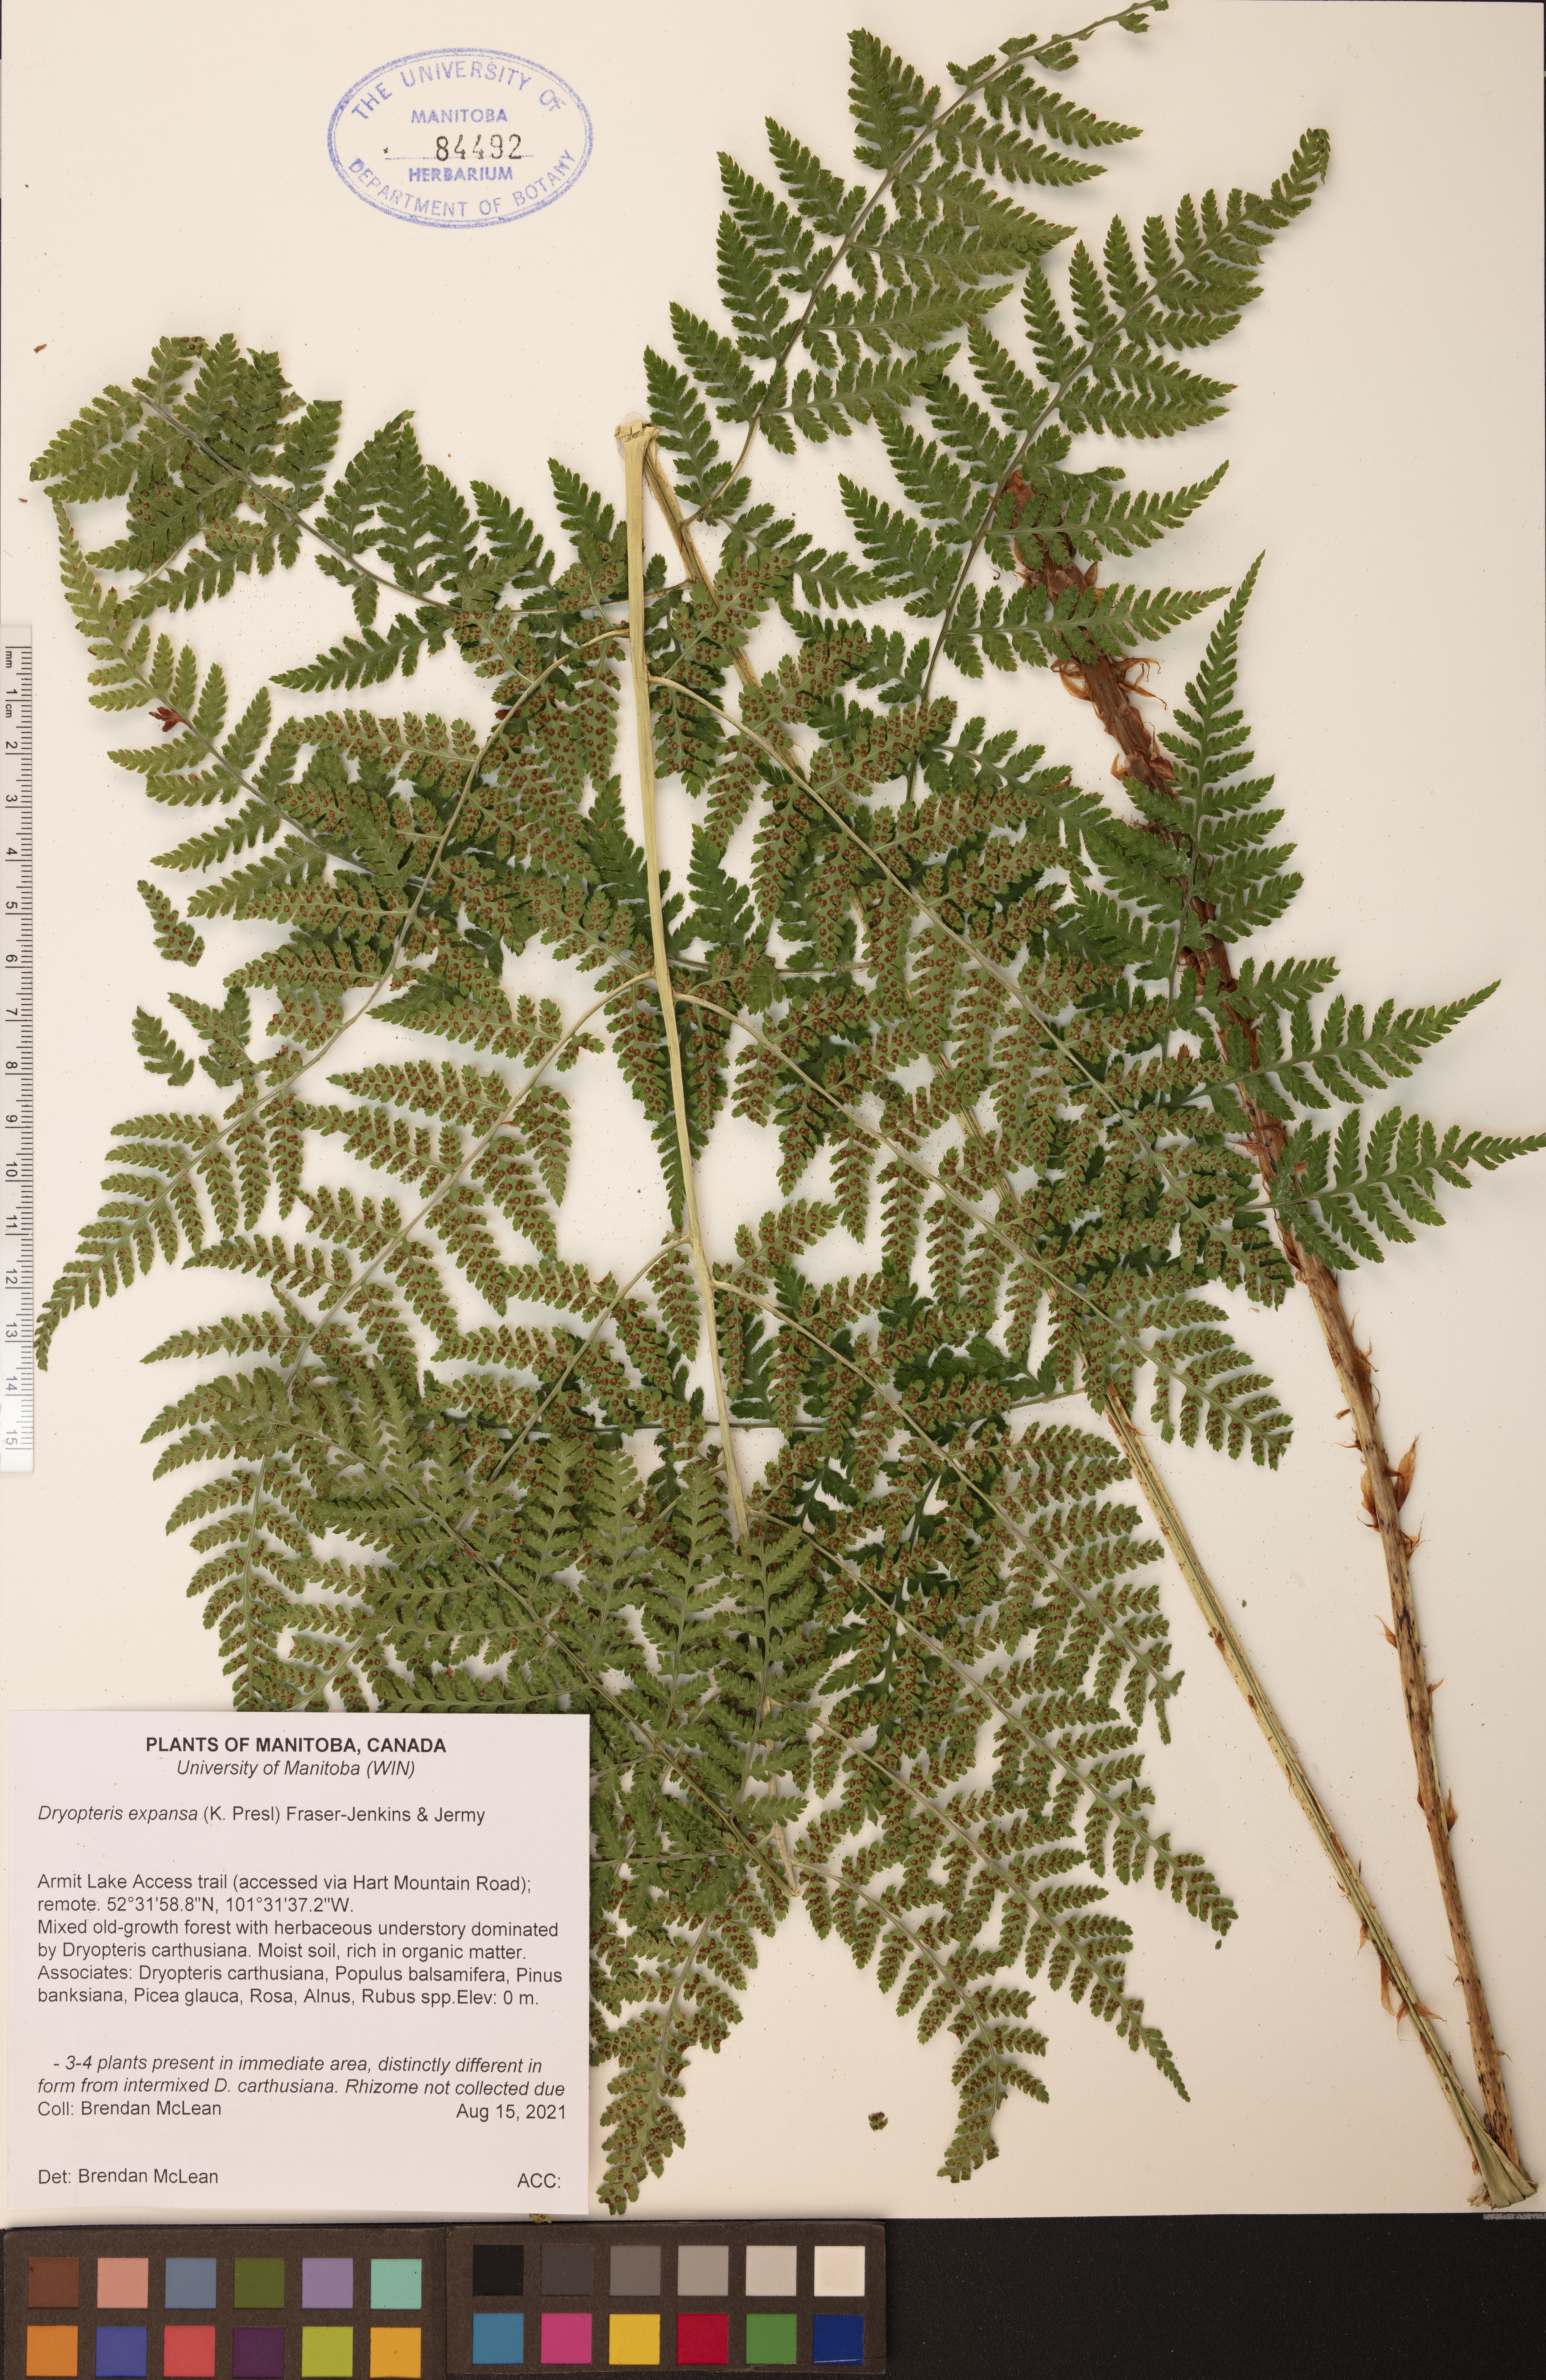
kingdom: Plantae
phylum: Tracheophyta
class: Polypodiopsida
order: Polypodiales
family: Dryopteridaceae
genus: Dryopteris
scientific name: Dryopteris expansa
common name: Northern buckler fern
